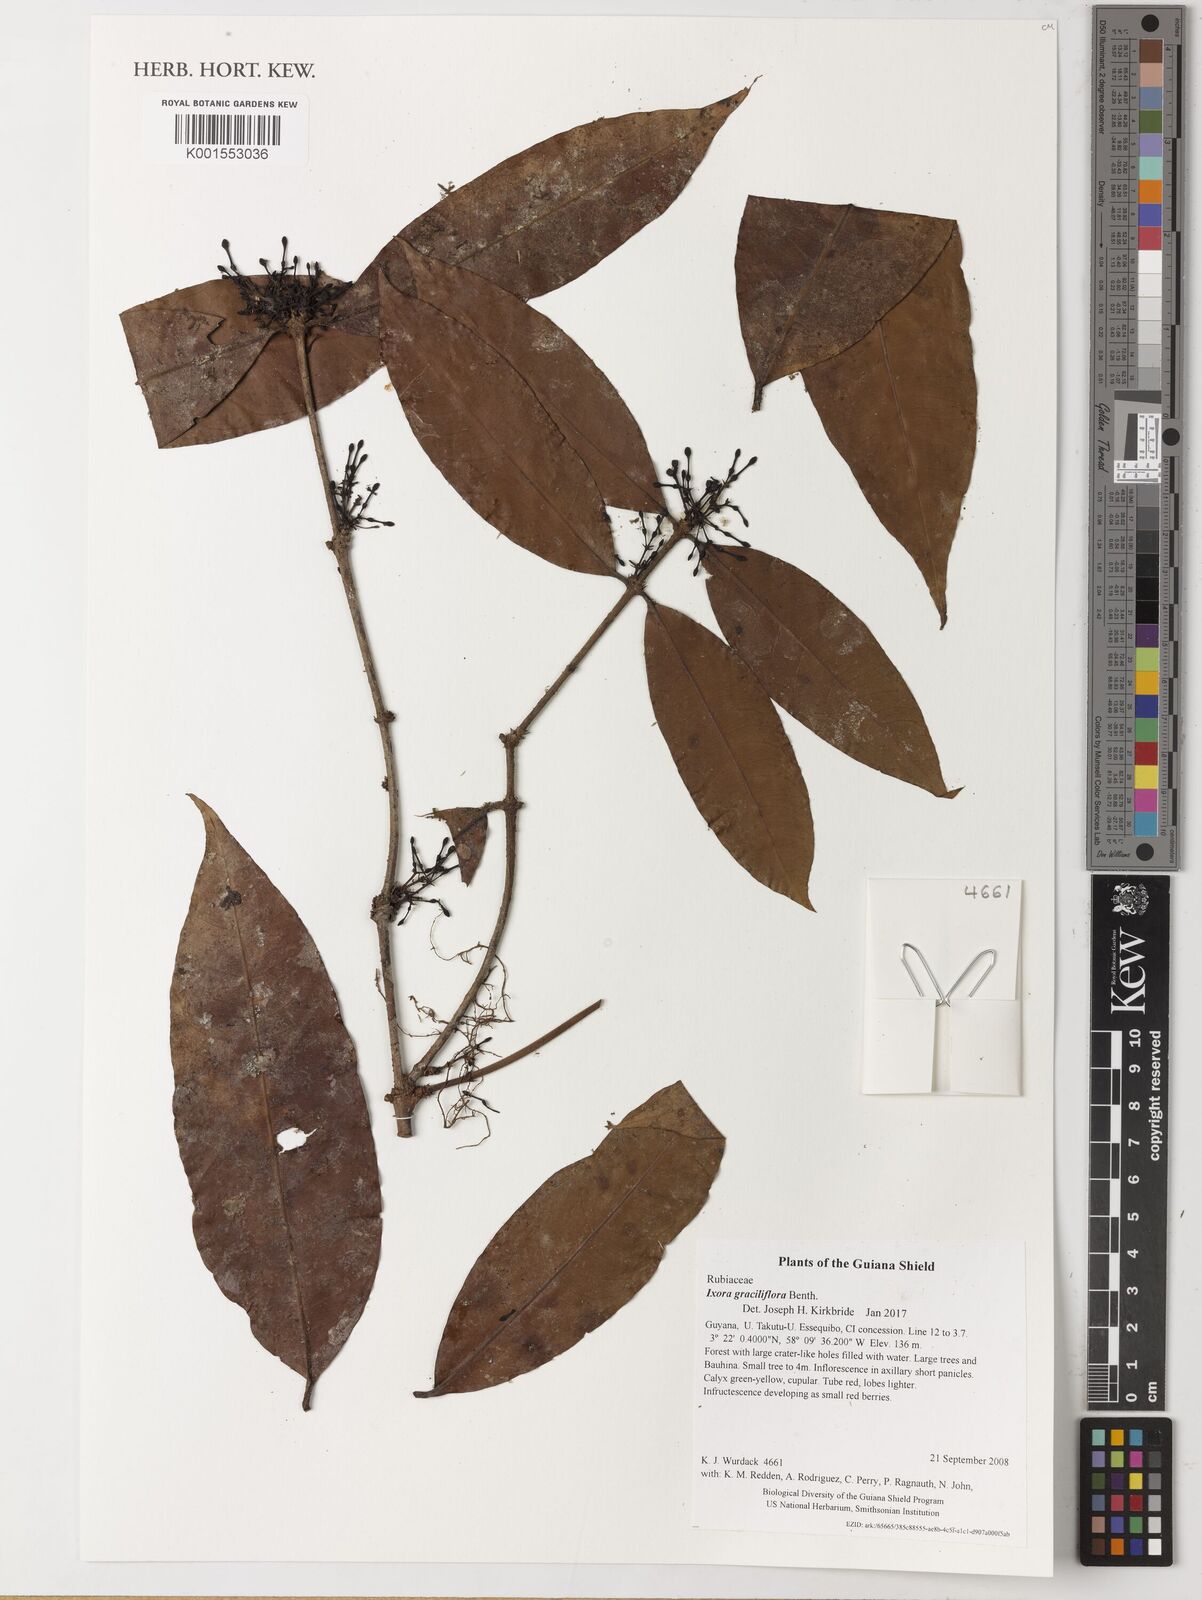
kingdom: Plantae
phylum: Tracheophyta
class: Magnoliopsida
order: Gentianales
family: Rubiaceae
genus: Ixora
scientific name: Ixora graciliflora
